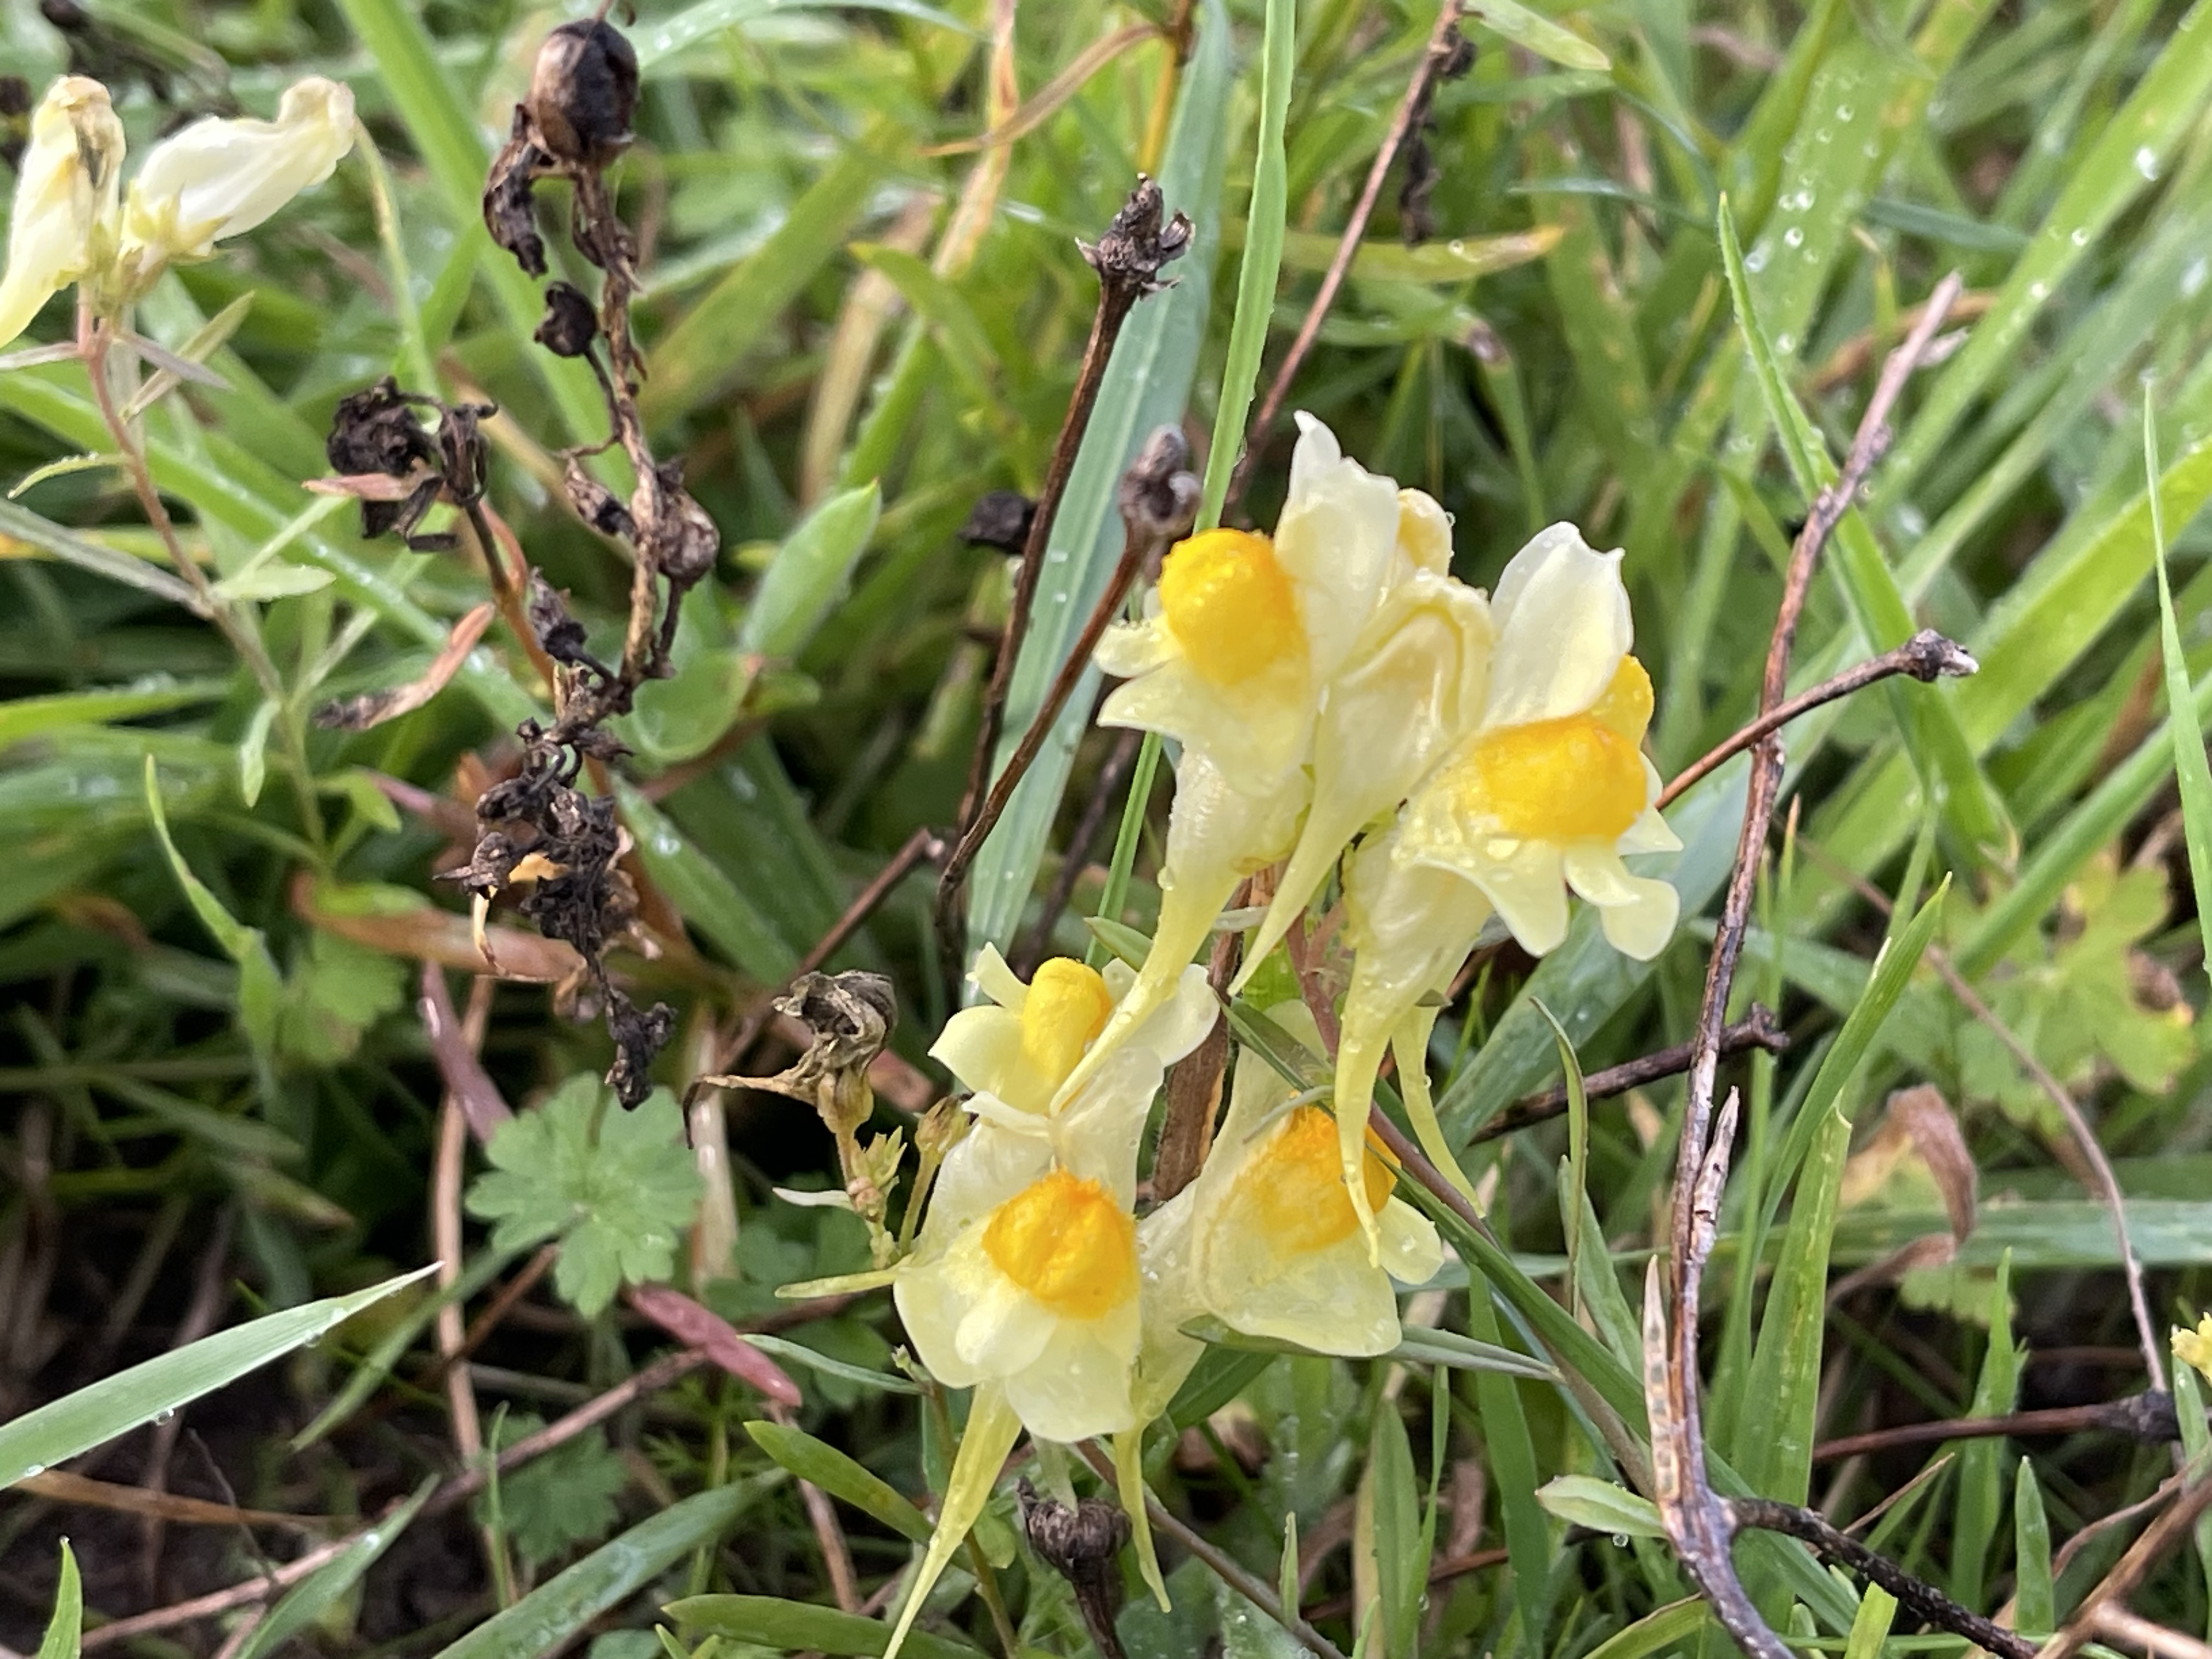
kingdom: Plantae
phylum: Tracheophyta
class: Magnoliopsida
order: Lamiales
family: Plantaginaceae
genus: Linaria
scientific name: Linaria vulgaris
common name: Almindelig torskemund
